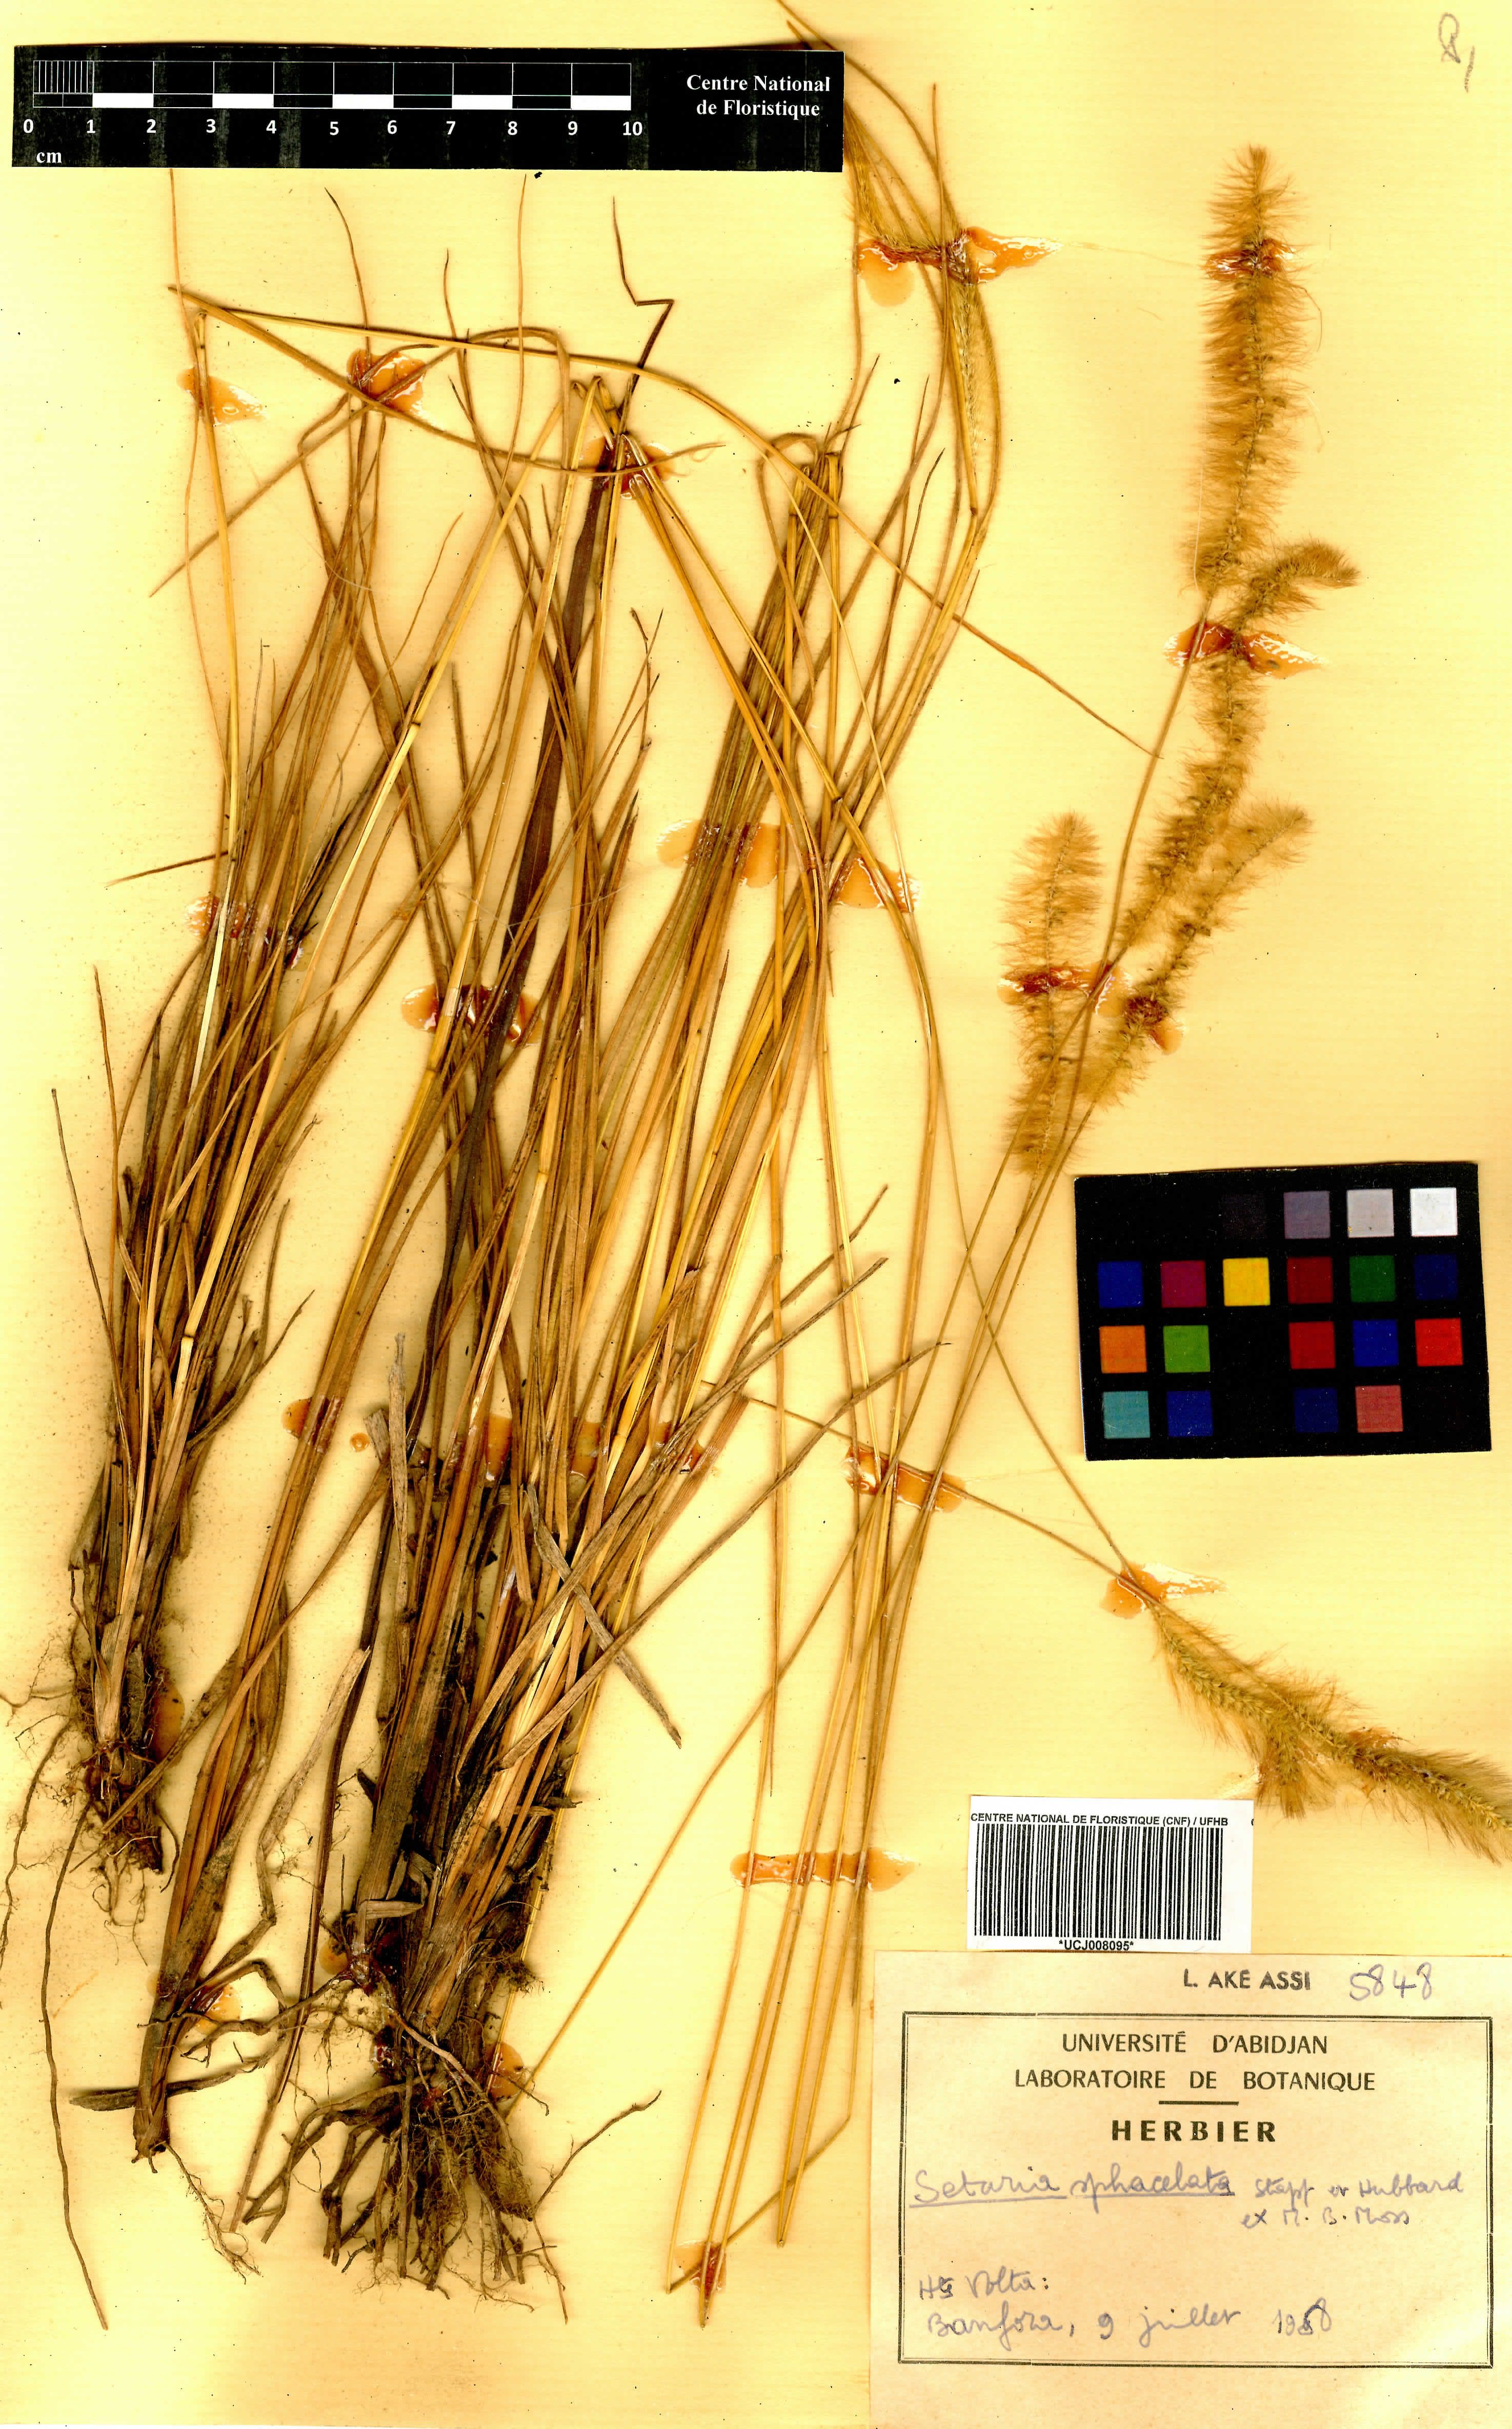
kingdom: Plantae
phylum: Tracheophyta
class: Liliopsida
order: Poales
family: Poaceae
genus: Setaria
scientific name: Setaria sphacelata
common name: African bristlegrass
